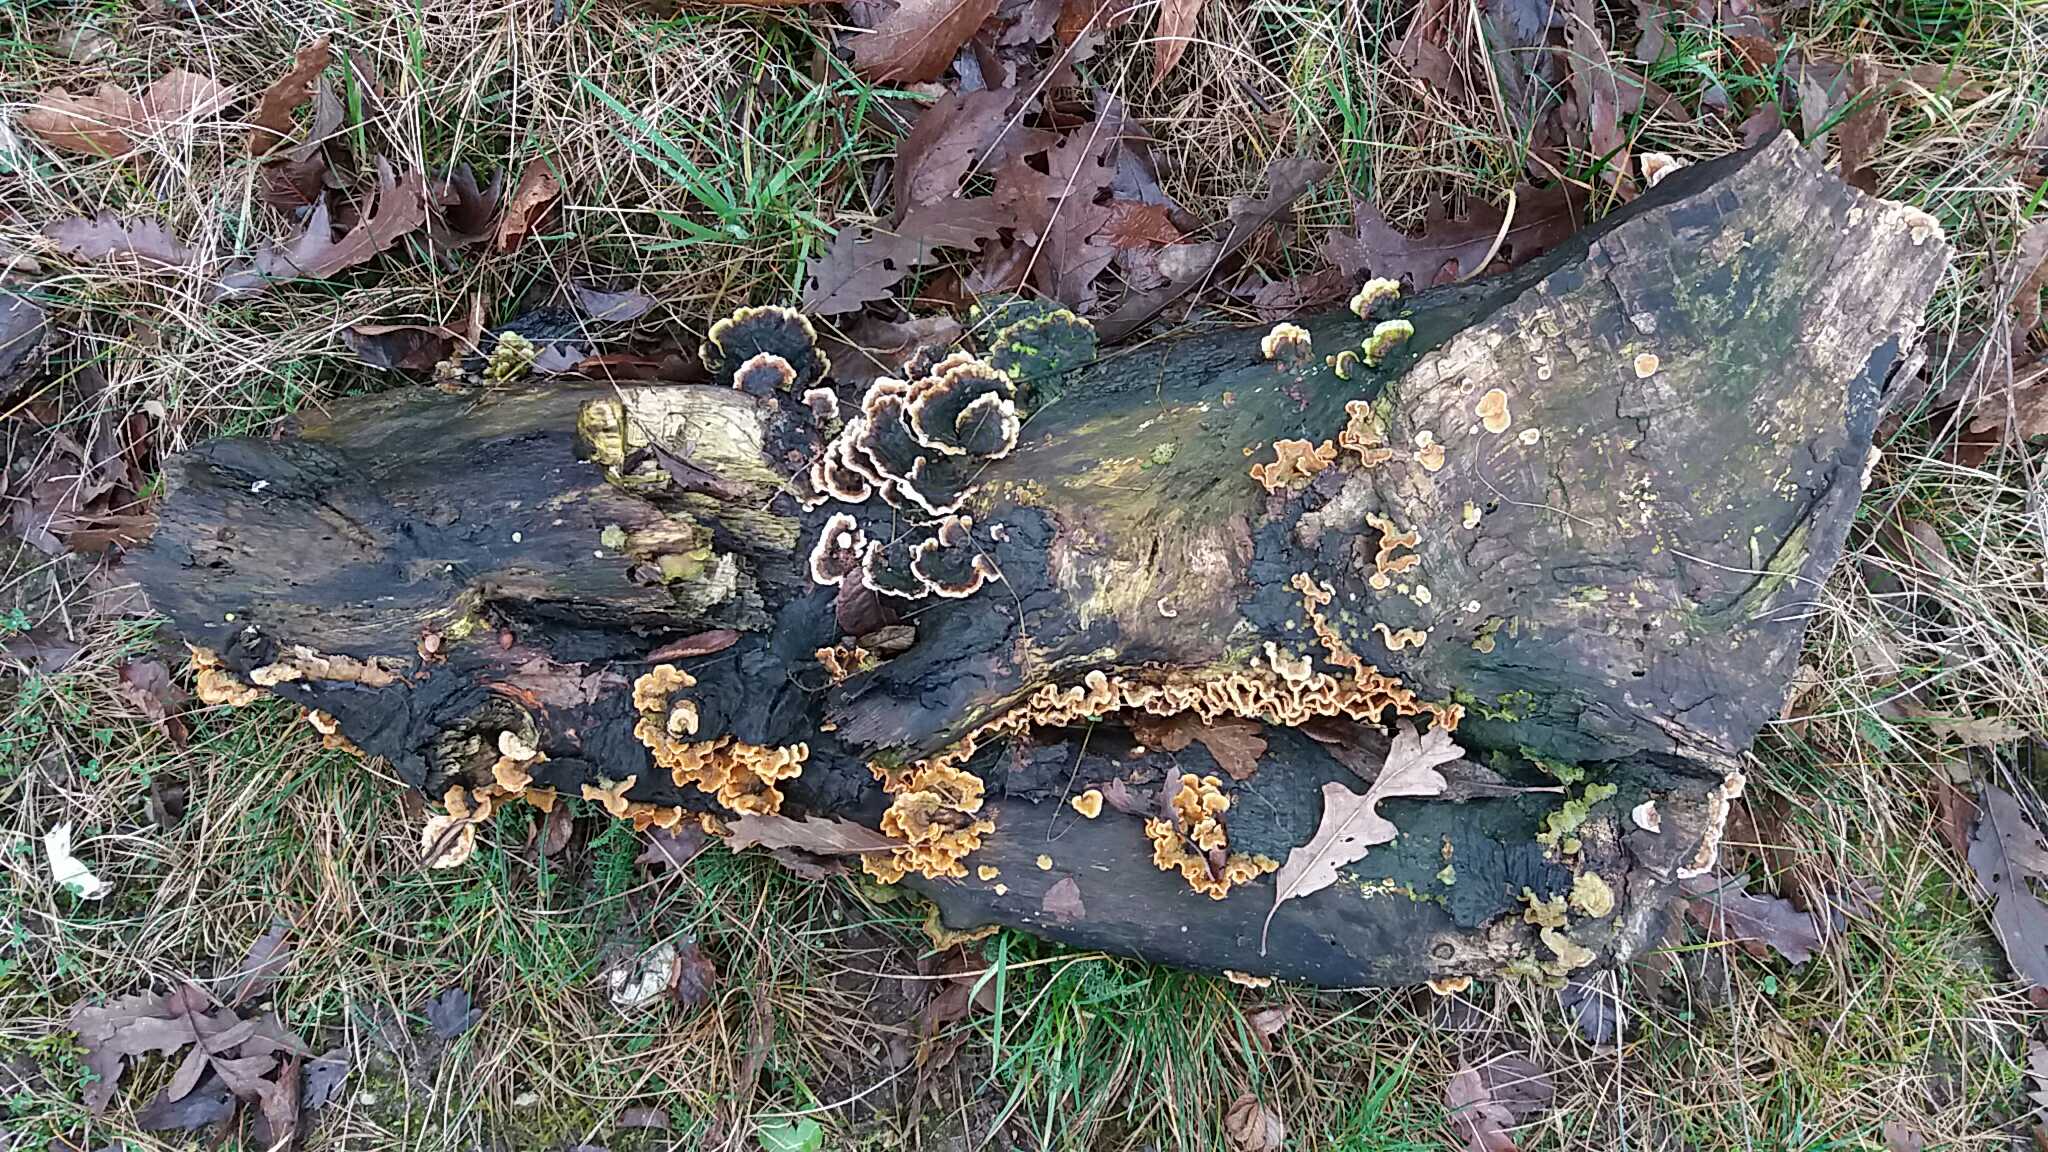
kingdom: Fungi
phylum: Basidiomycota
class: Agaricomycetes
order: Russulales
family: Stereaceae
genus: Stereum
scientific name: Stereum hirsutum
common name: håret lædersvamp
